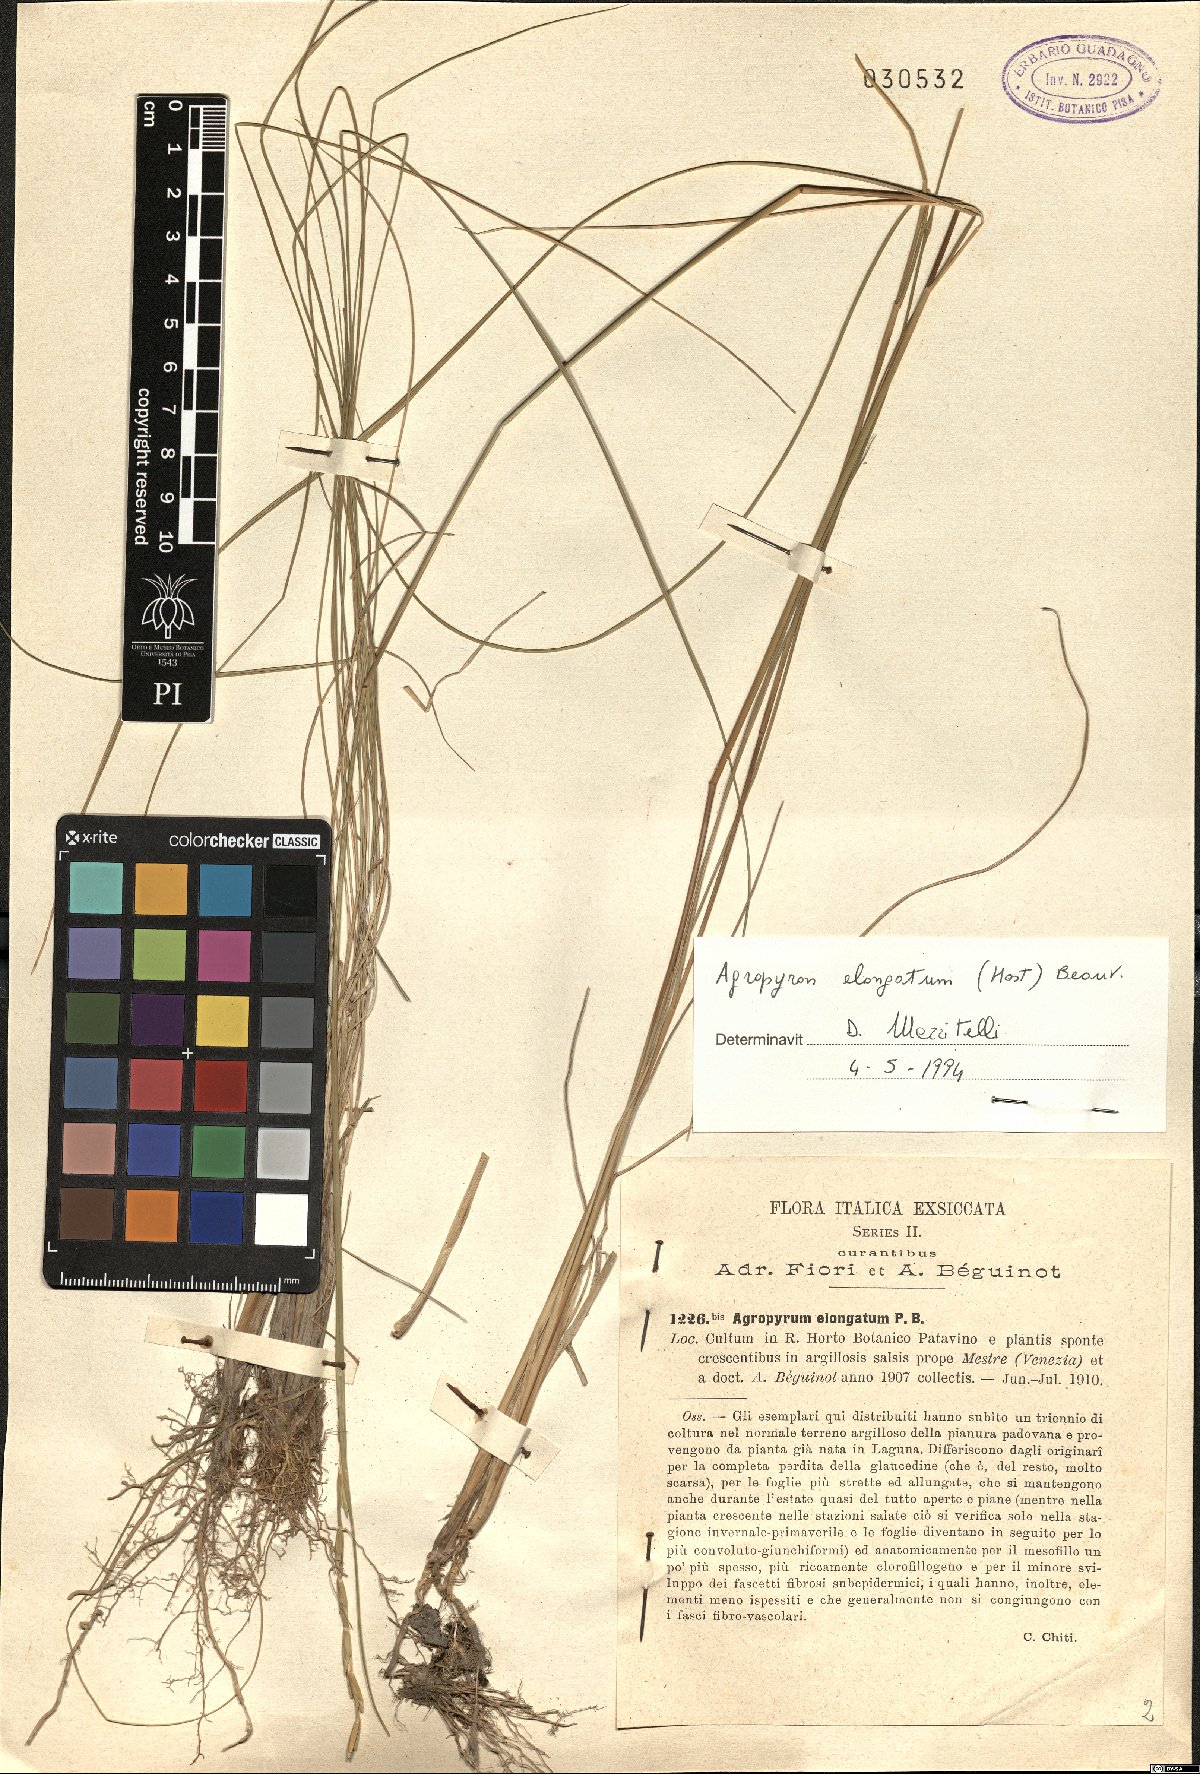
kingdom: Plantae
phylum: Tracheophyta
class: Liliopsida
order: Poales
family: Poaceae
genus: Thinopyrum
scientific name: Thinopyrum elongatum
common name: Tall wheatgrass
